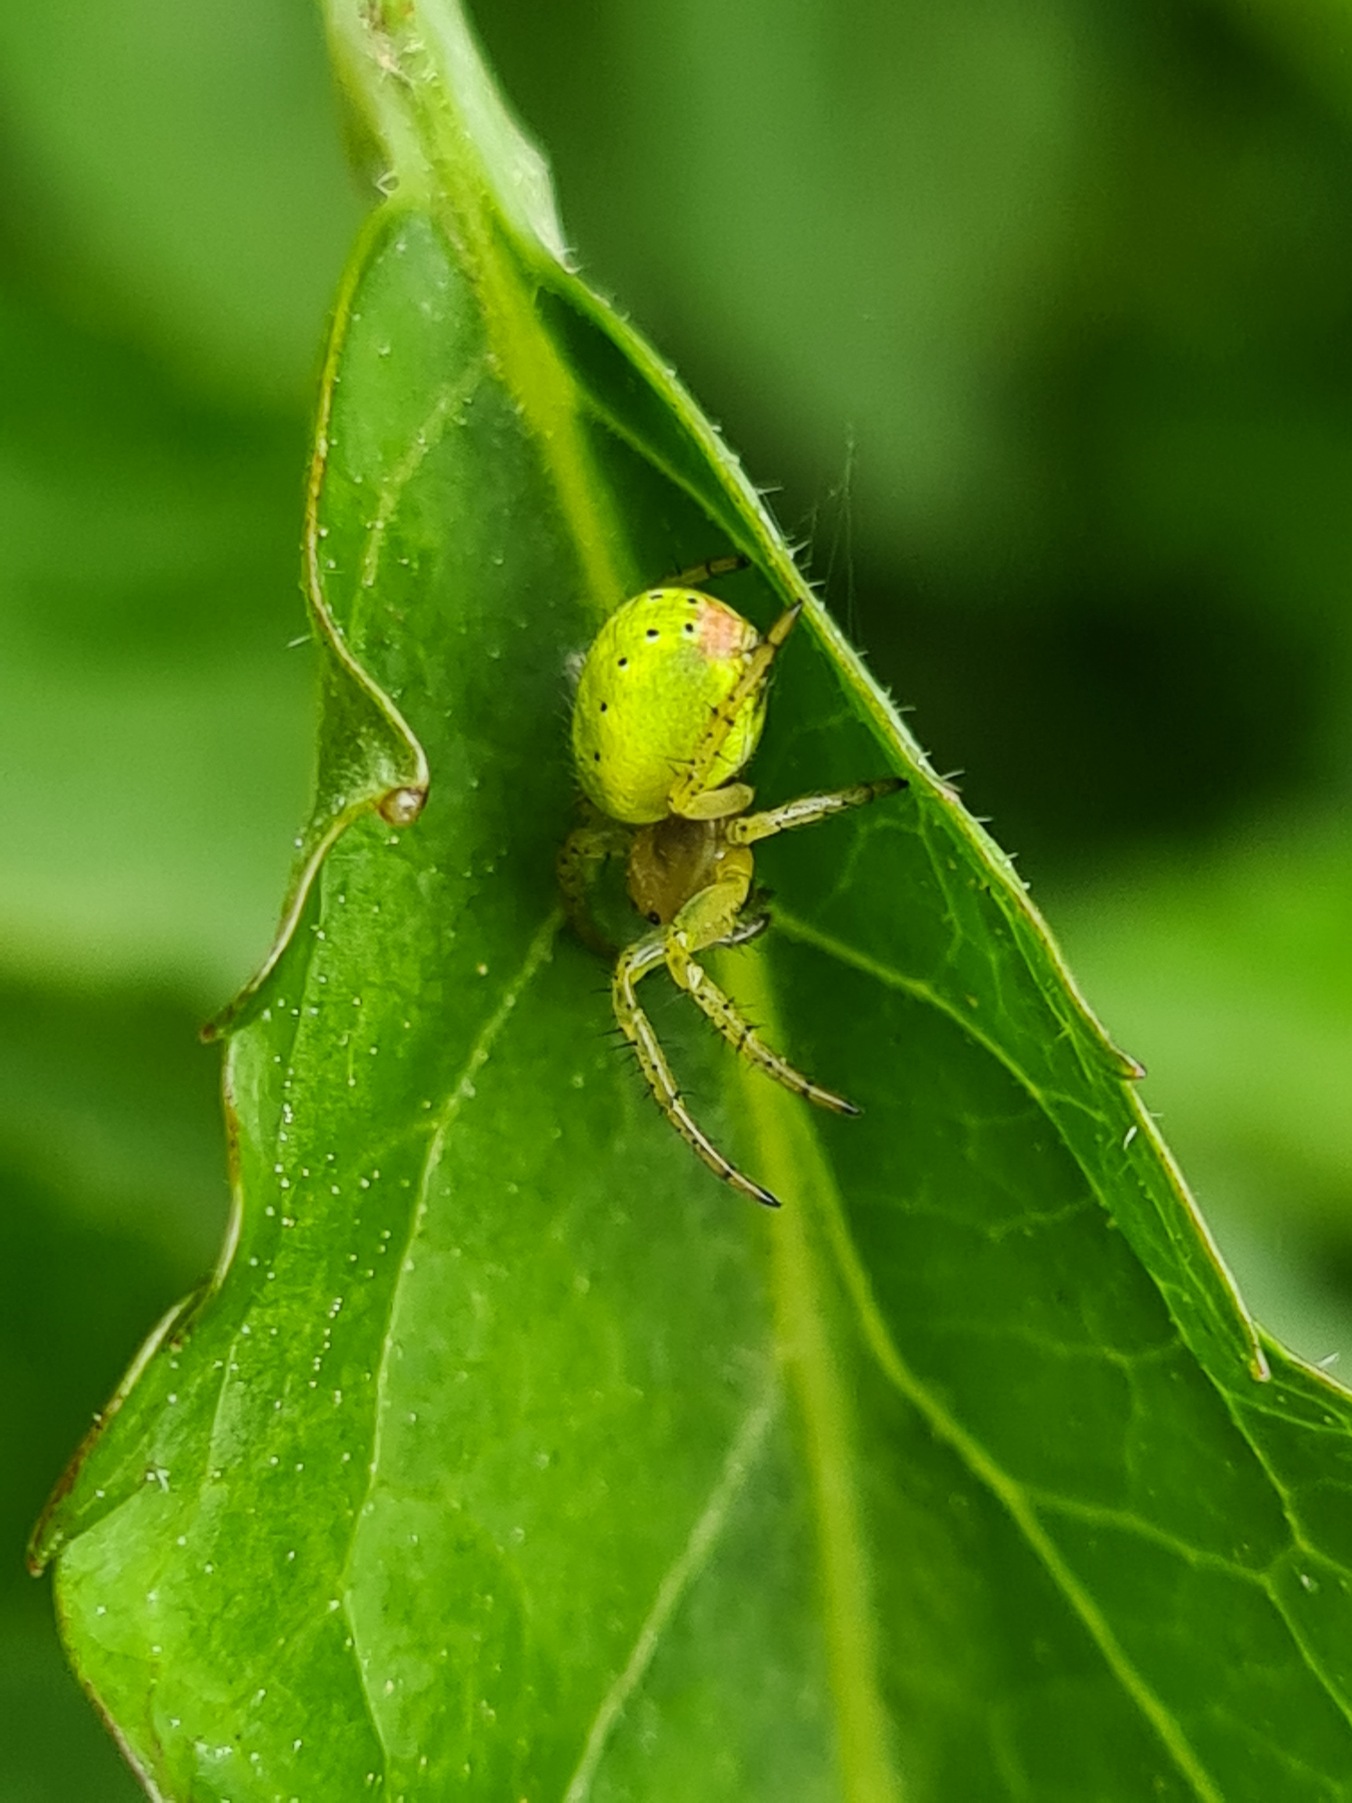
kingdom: Animalia
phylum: Arthropoda
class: Arachnida
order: Araneae
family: Araneidae
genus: Araniella
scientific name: Araniella
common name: Agurkeedderkopslægten
